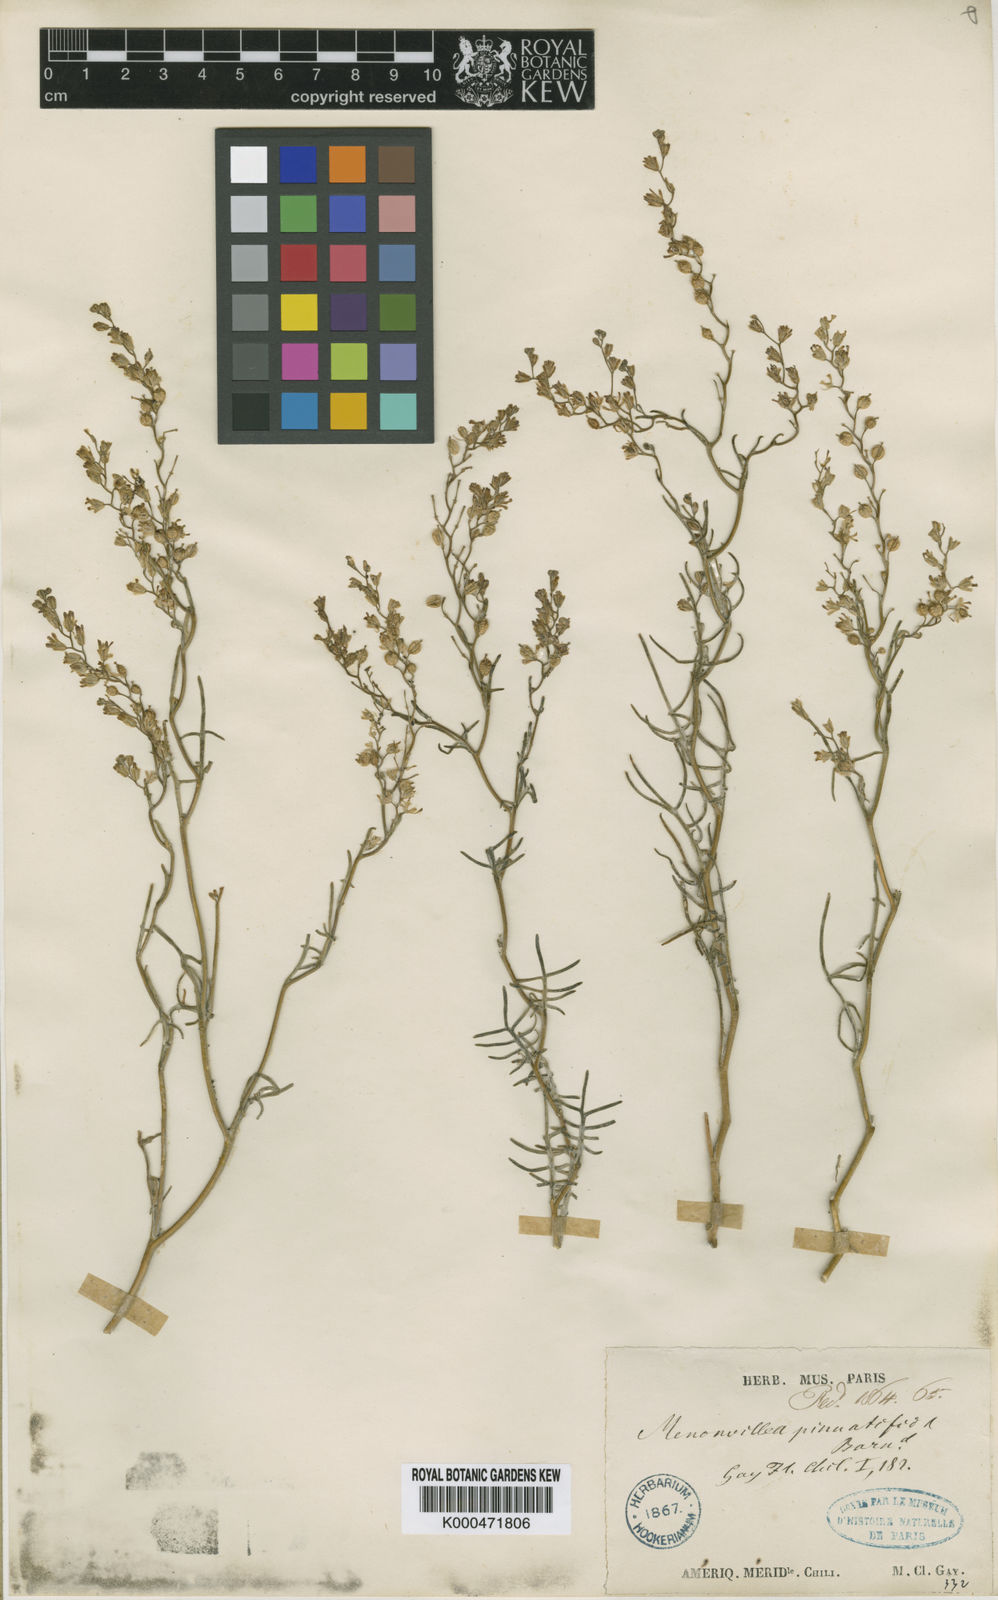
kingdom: Plantae
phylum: Tracheophyta
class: Magnoliopsida
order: Brassicales
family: Brassicaceae
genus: Menonvillea
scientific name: Menonvillea
